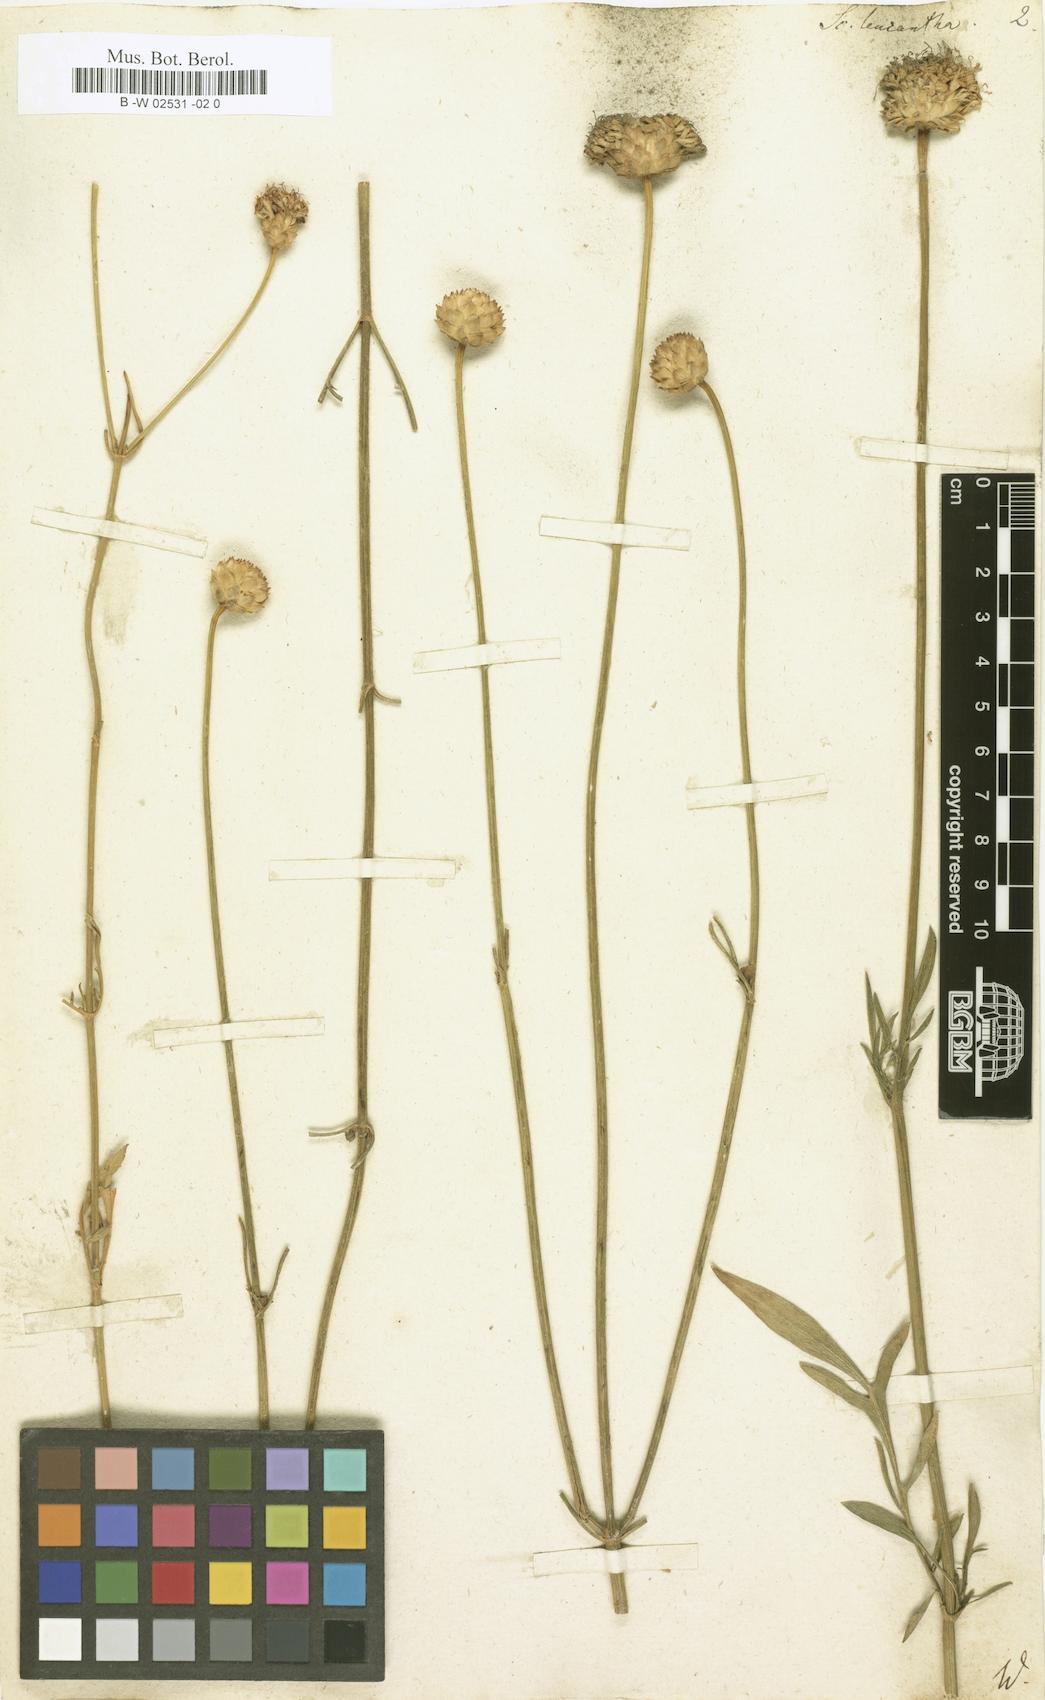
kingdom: Plantae
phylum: Tracheophyta
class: Magnoliopsida
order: Dipsacales
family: Caprifoliaceae
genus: Cephalaria
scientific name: Cephalaria leucantha
